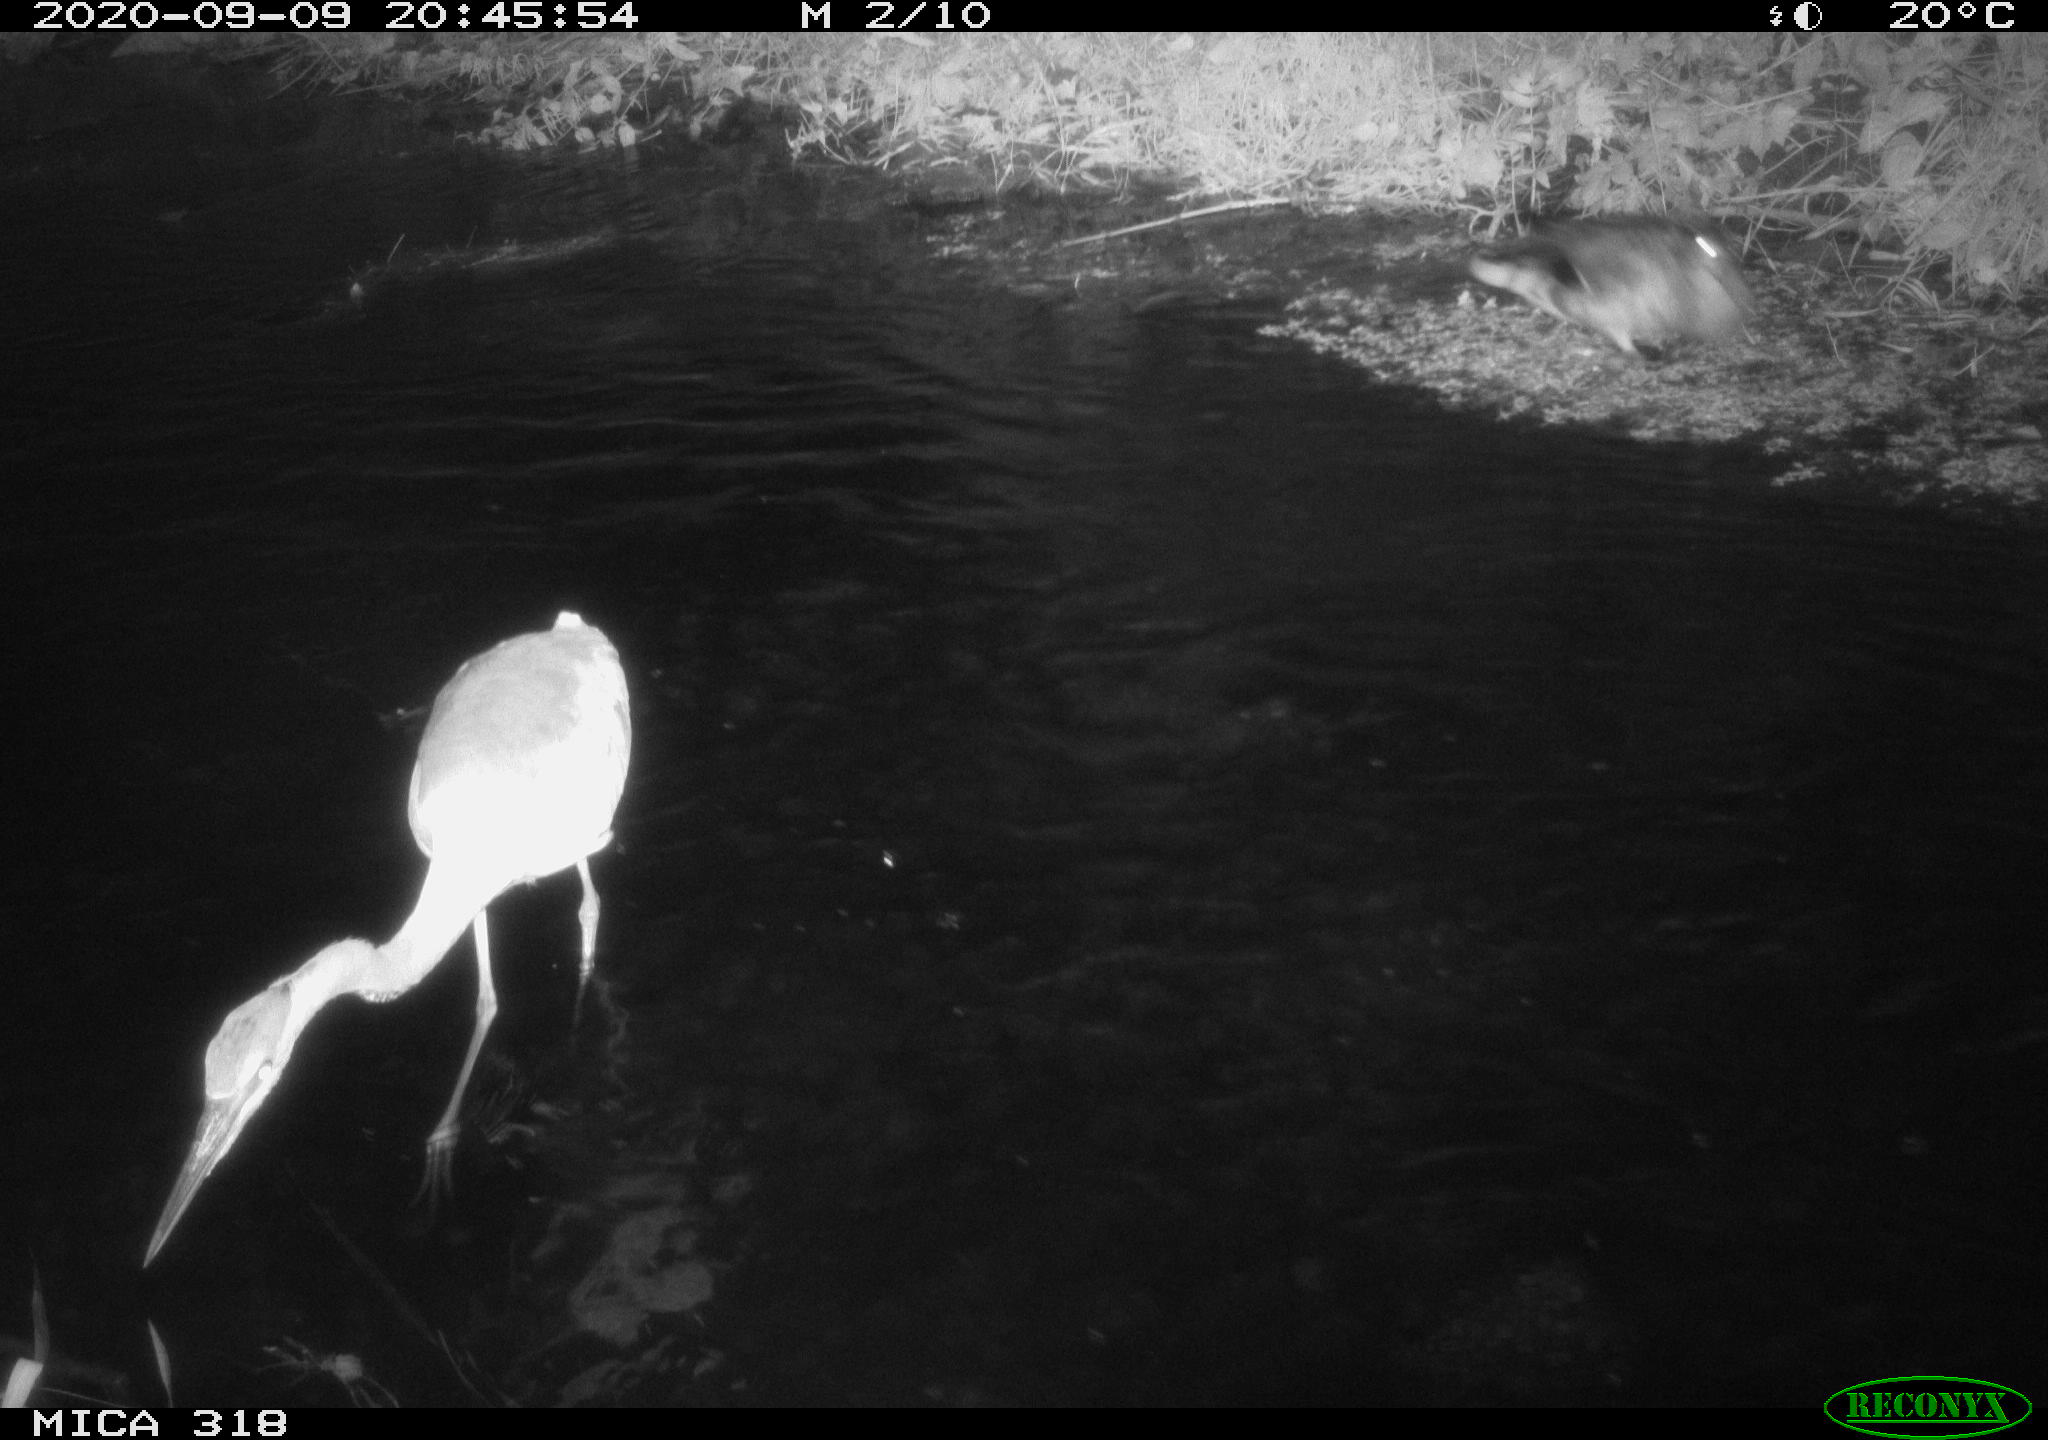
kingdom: Animalia
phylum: Chordata
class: Aves
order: Pelecaniformes
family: Ardeidae
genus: Ardea
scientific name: Ardea
